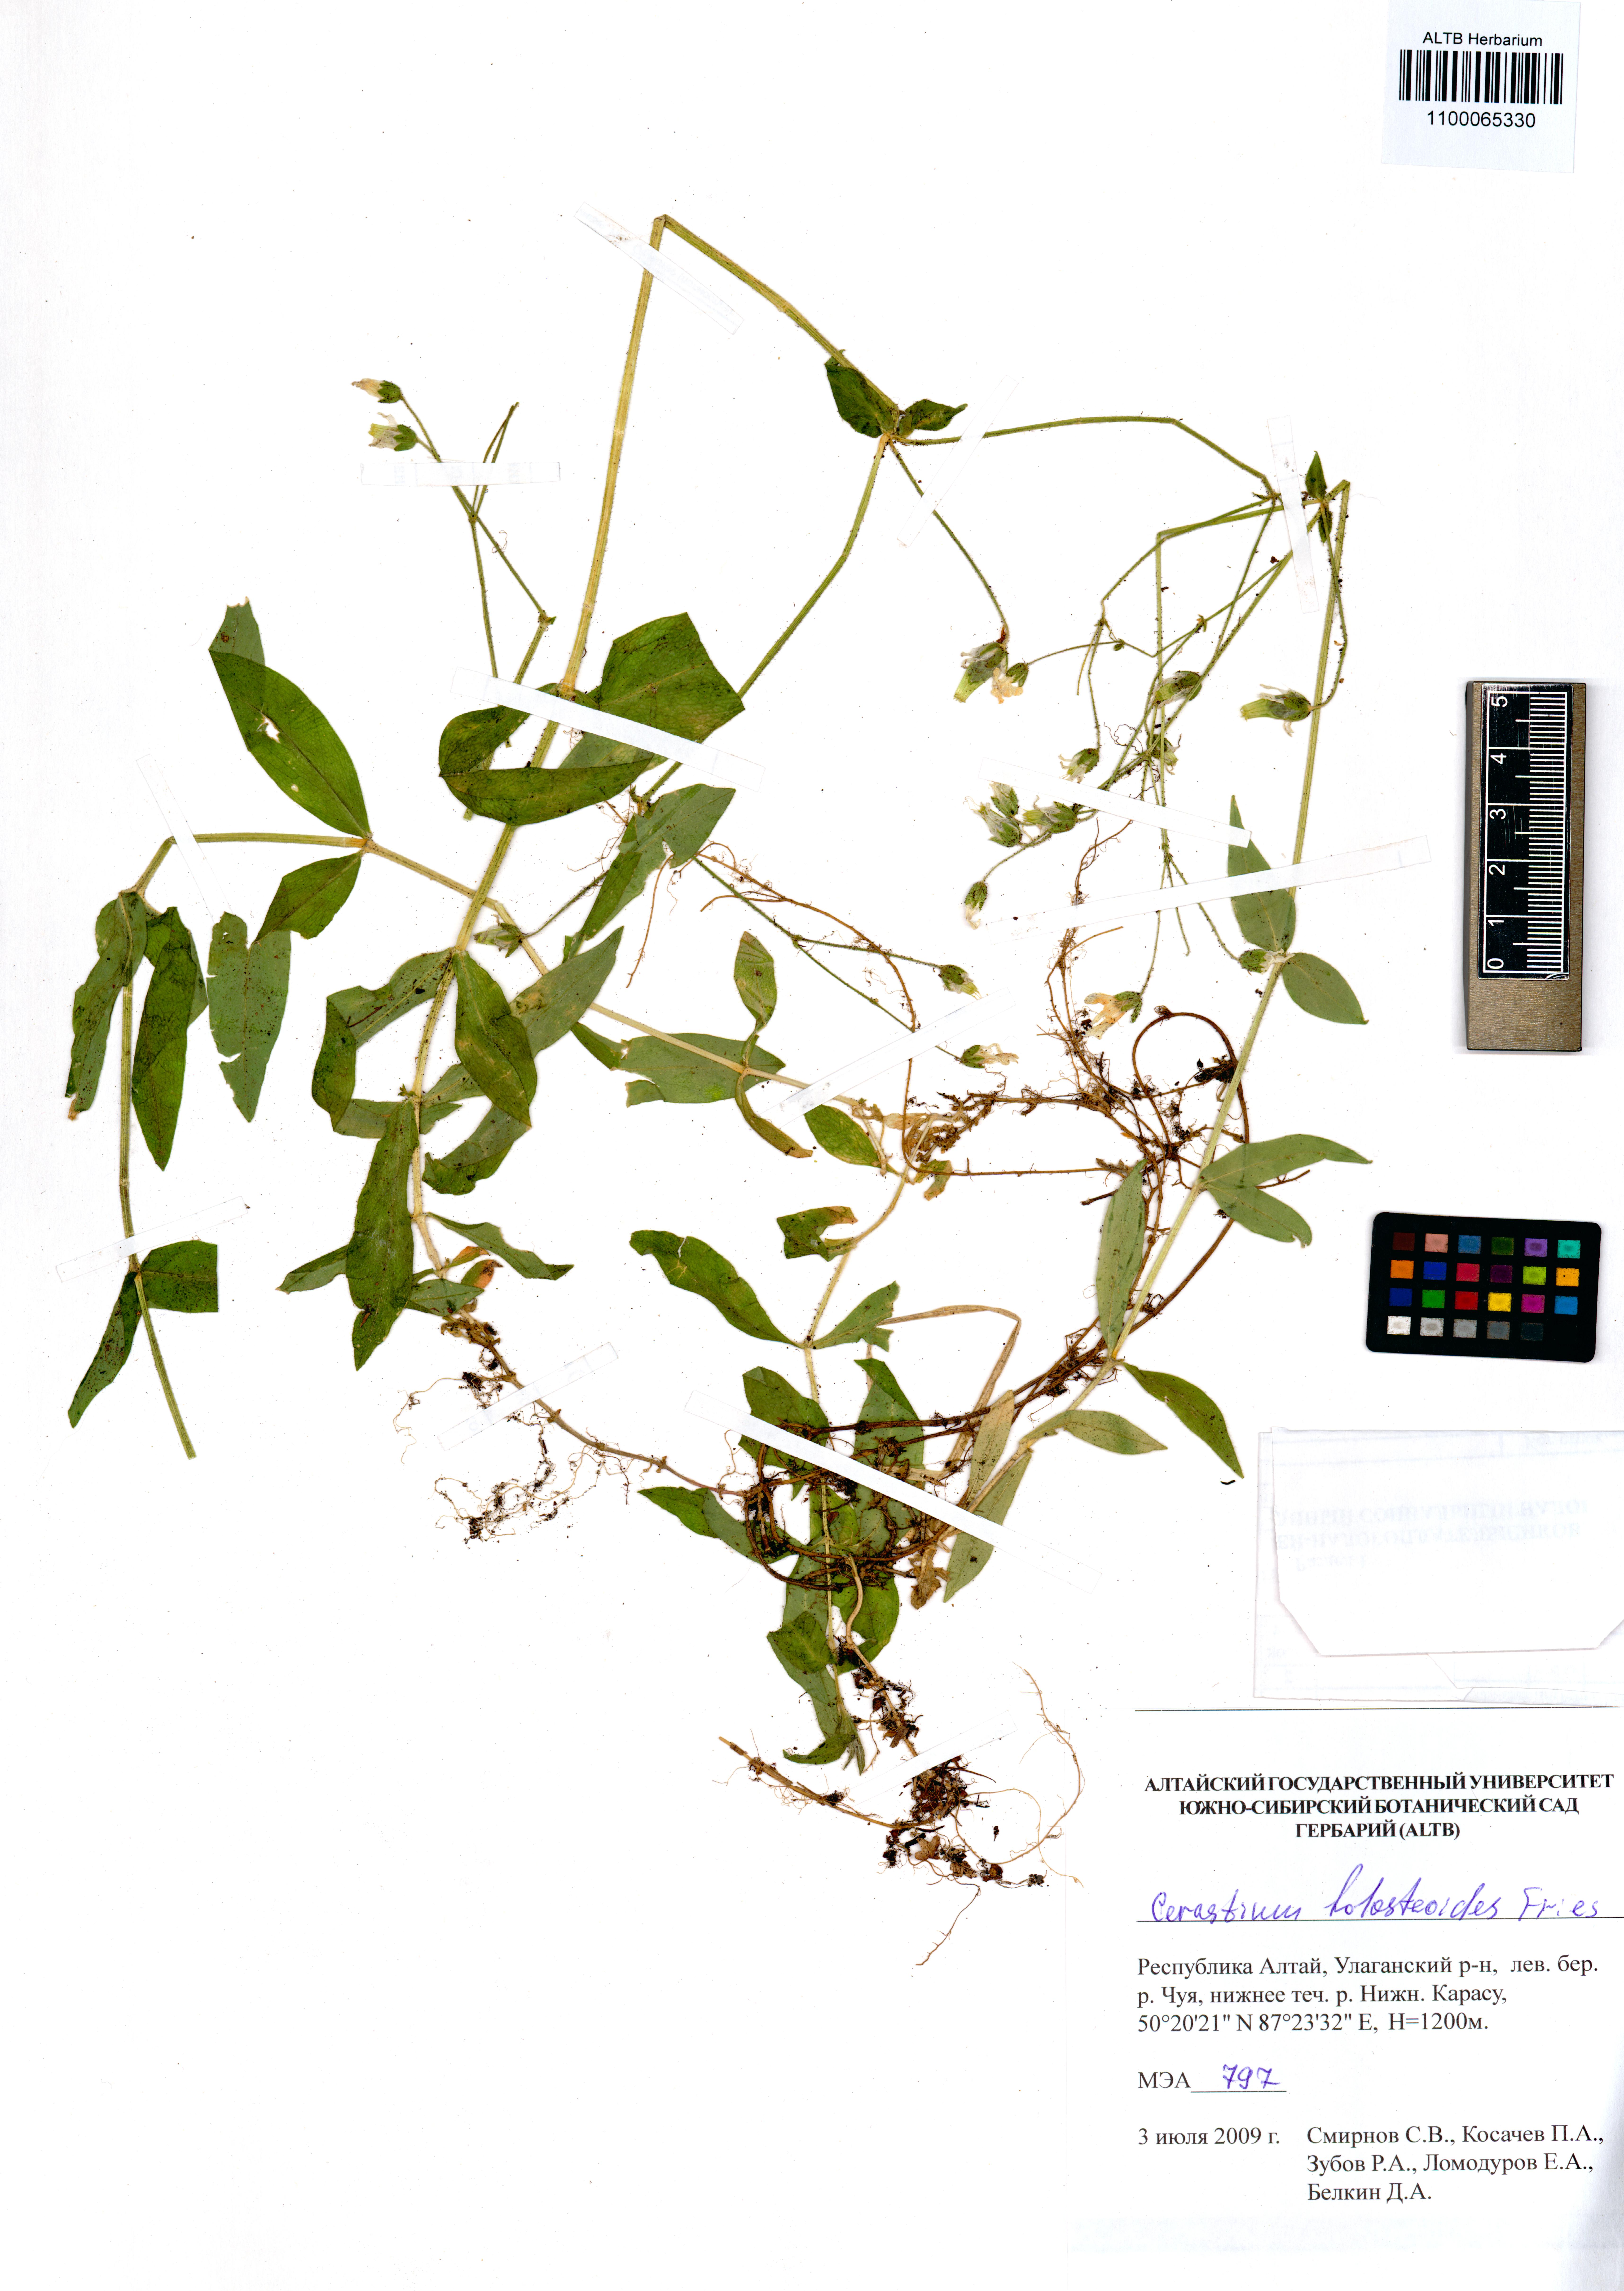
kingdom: Plantae
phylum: Tracheophyta
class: Magnoliopsida
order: Caryophyllales
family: Caryophyllaceae
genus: Cerastium
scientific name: Cerastium holosteoides
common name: Big chickweed
